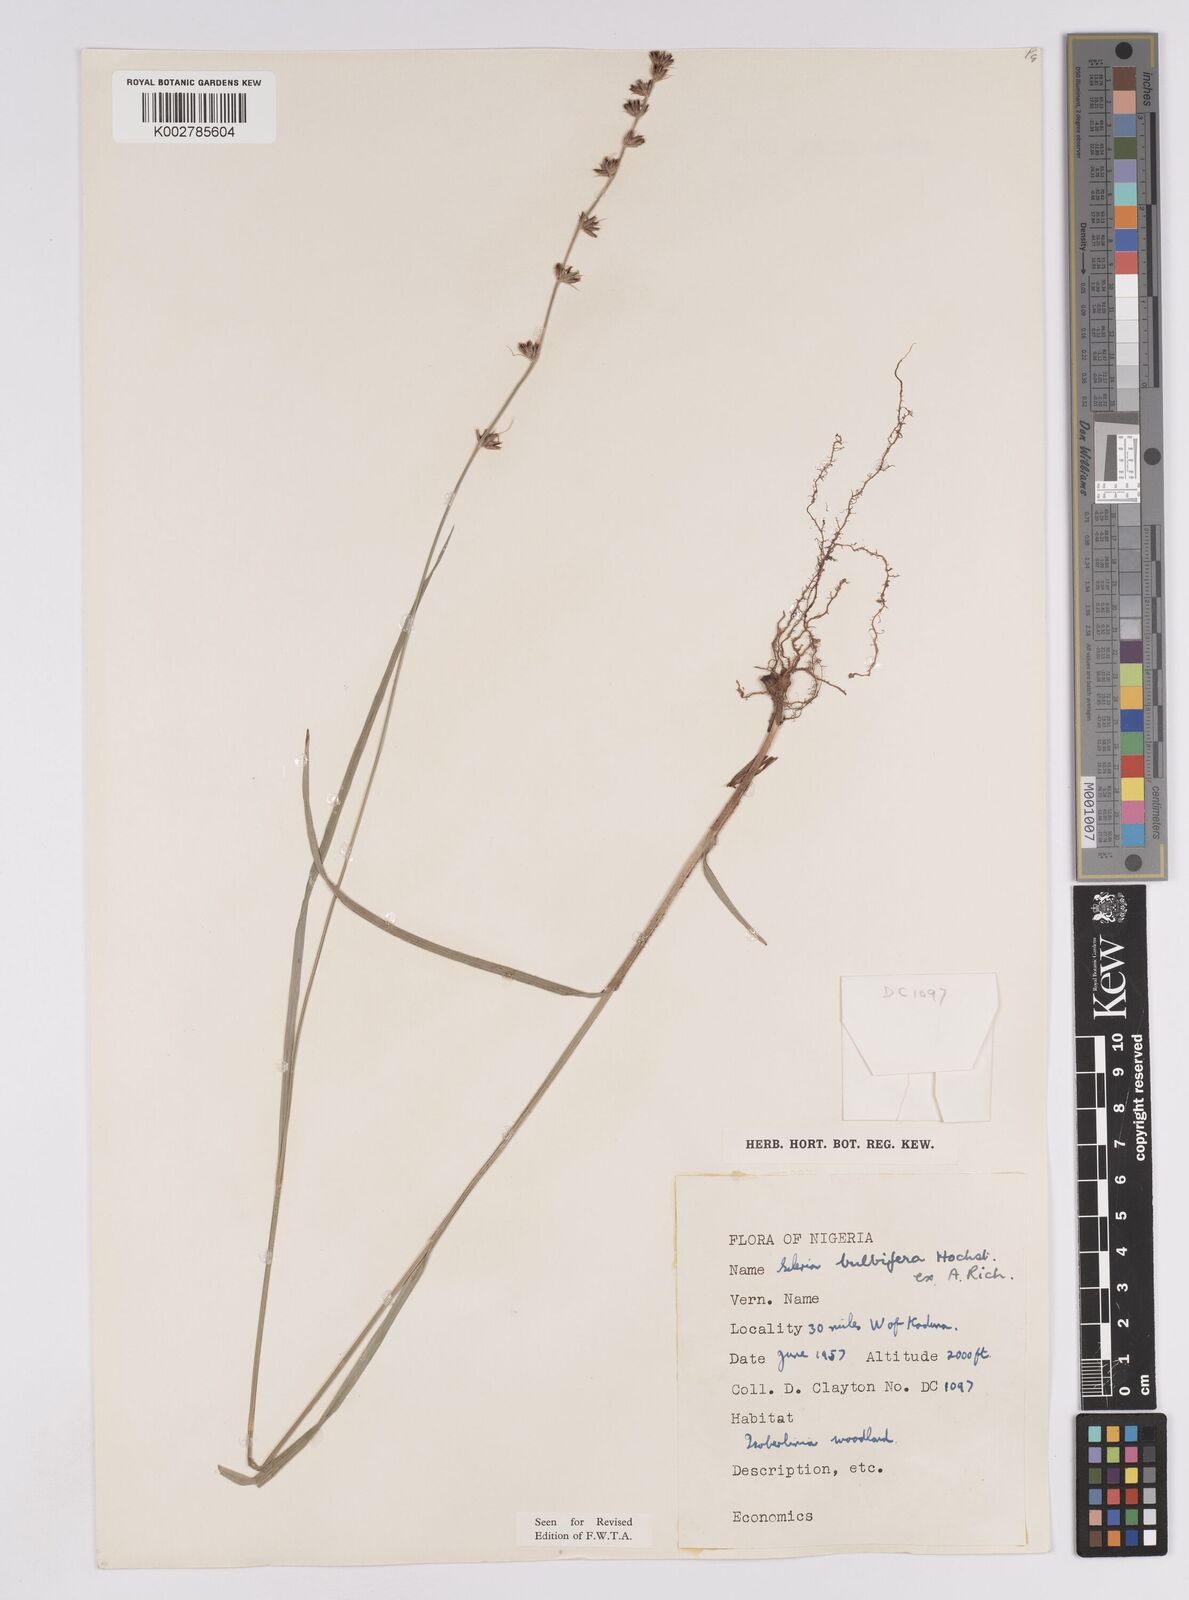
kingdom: Plantae
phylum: Tracheophyta
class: Liliopsida
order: Poales
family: Cyperaceae
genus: Scleria
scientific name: Scleria bulbifera
